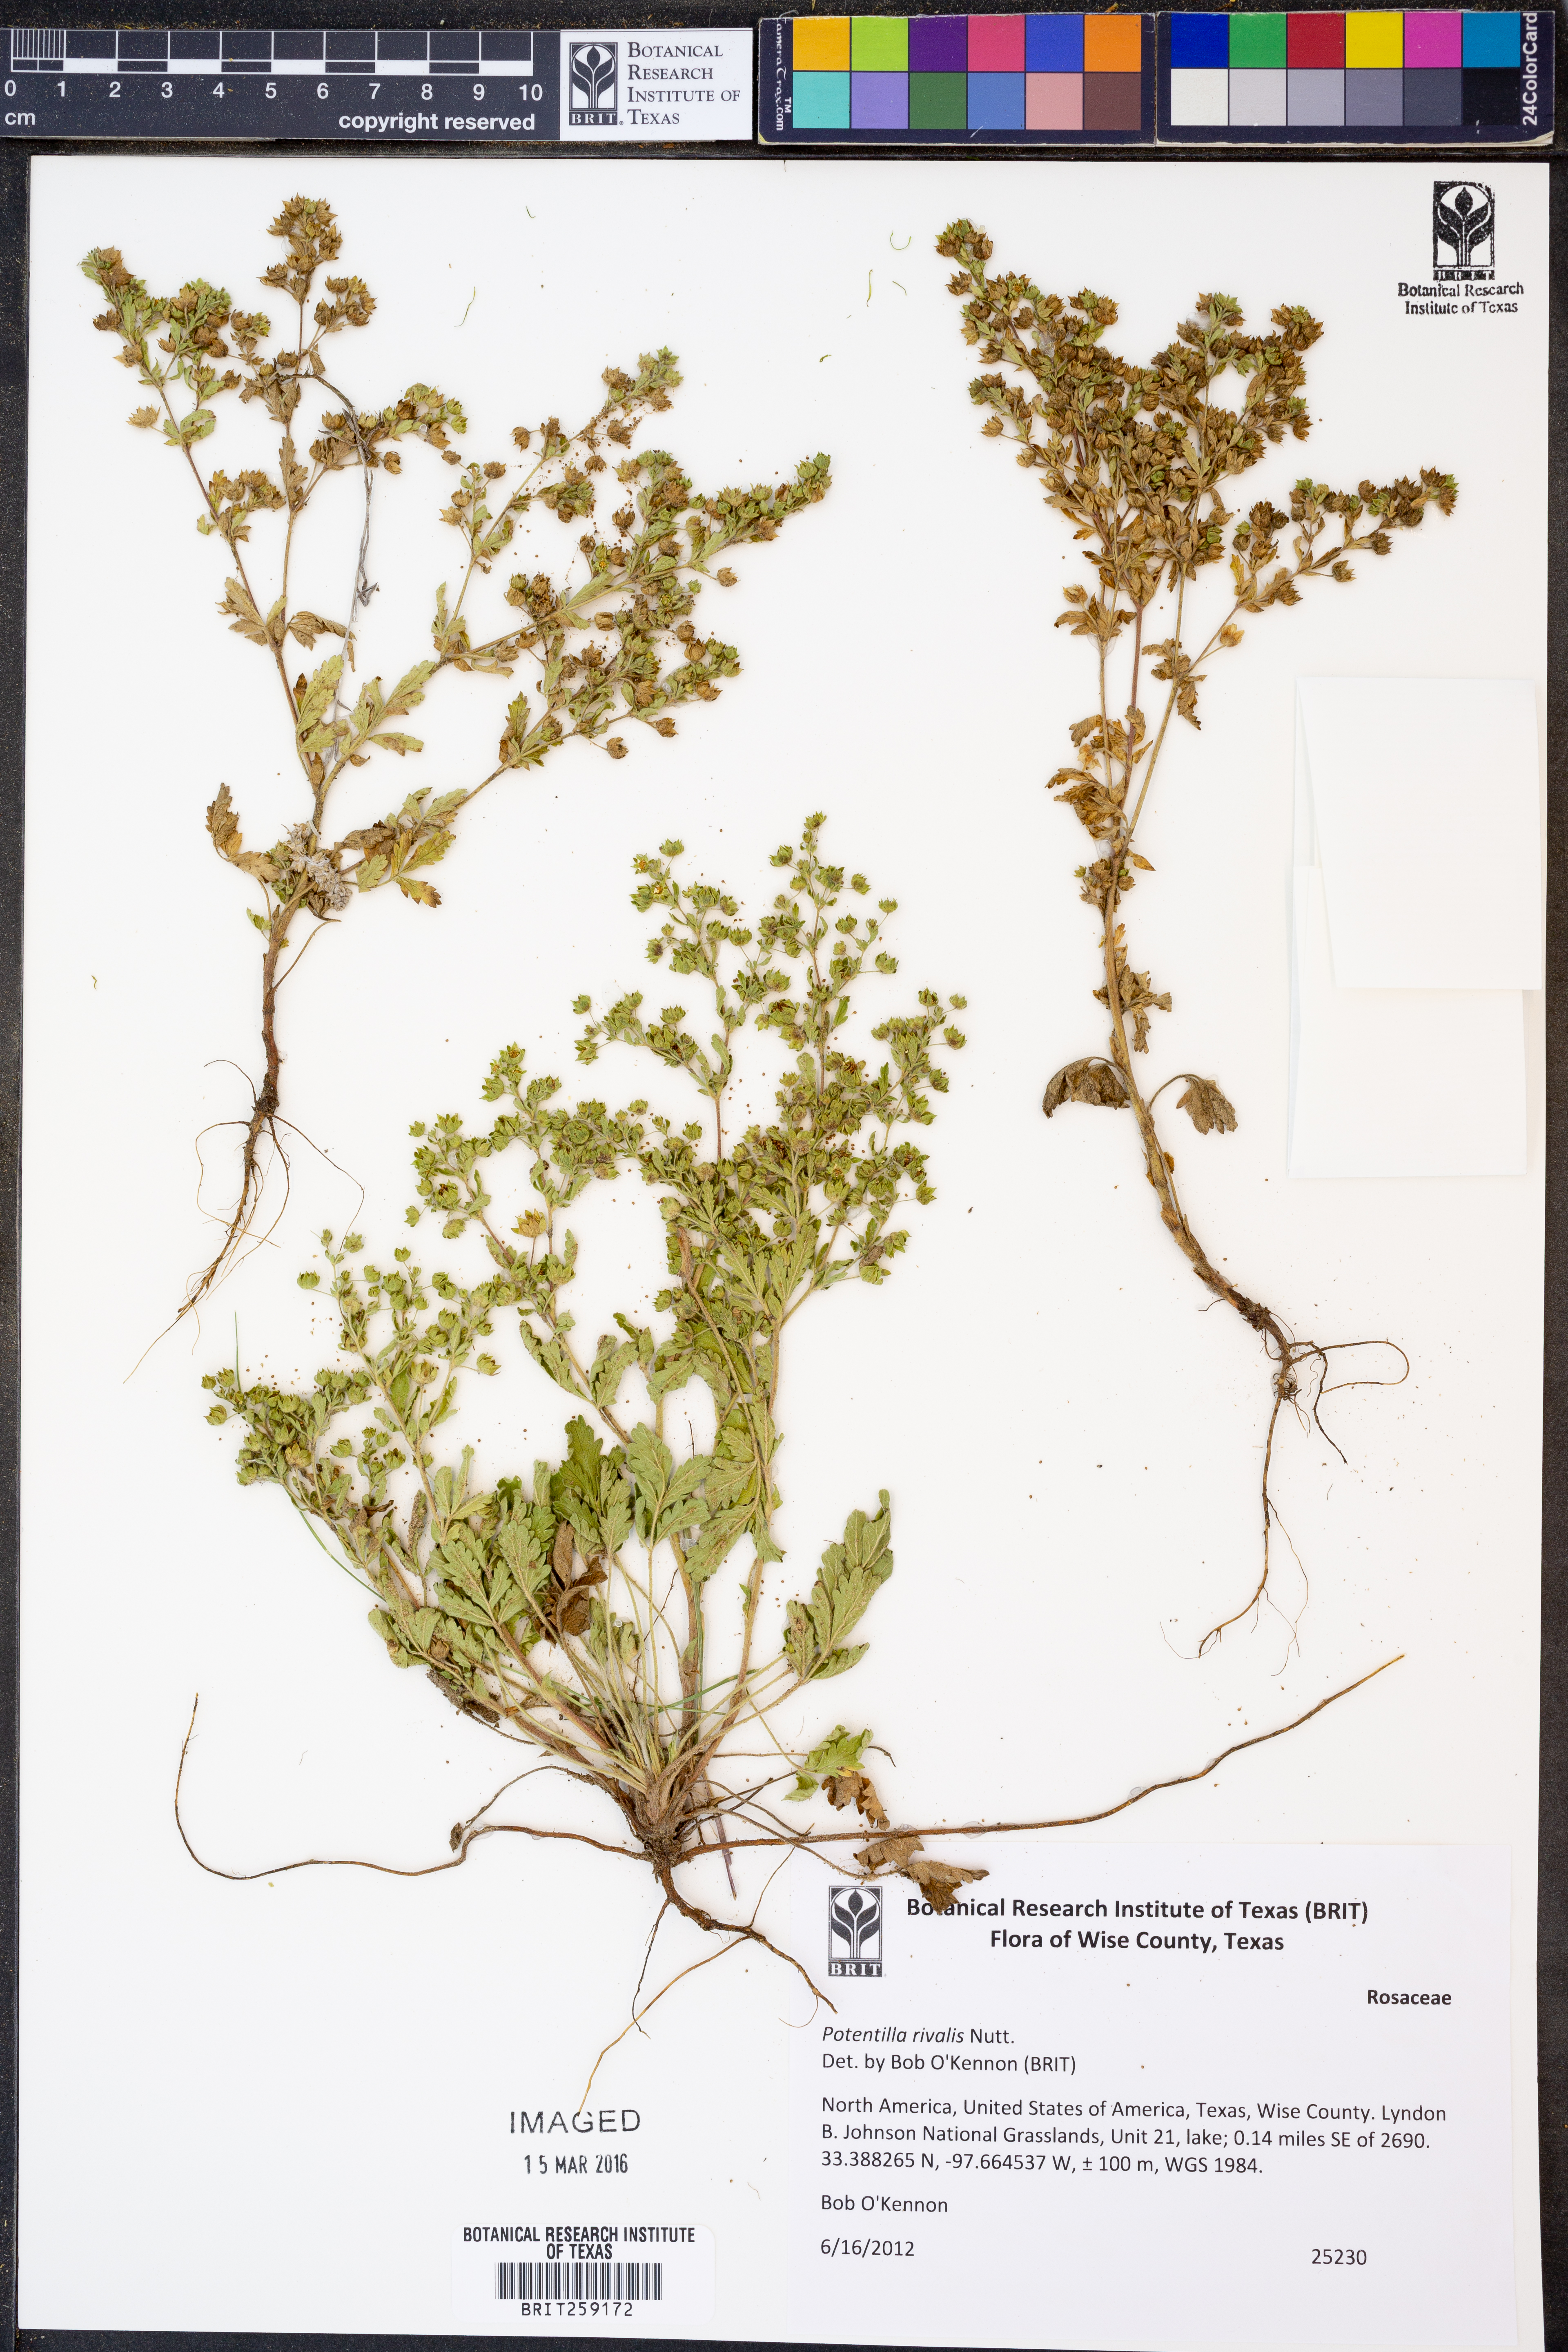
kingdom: Plantae
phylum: Tracheophyta
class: Magnoliopsida
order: Rosales
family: Rosaceae
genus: Potentilla
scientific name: Potentilla rivalis
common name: Brook cinquefoil
